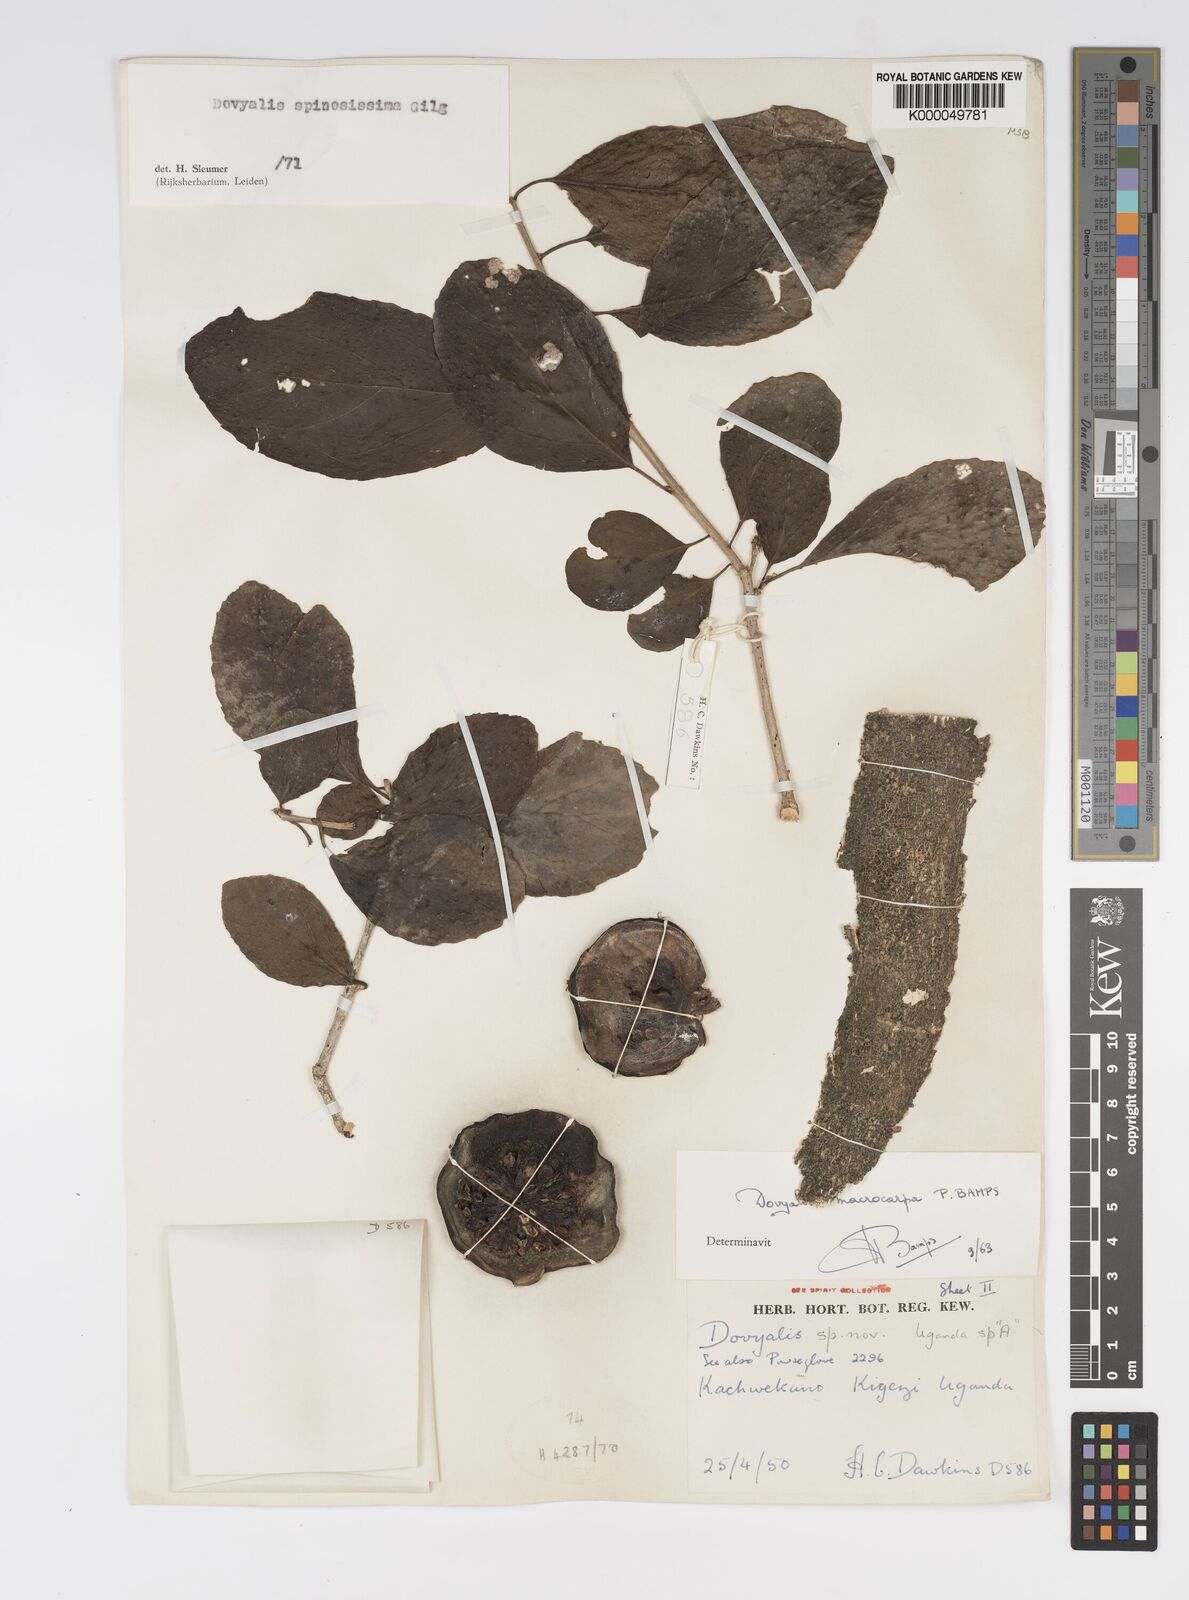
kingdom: Plantae
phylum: Tracheophyta
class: Magnoliopsida
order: Malpighiales
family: Salicaceae
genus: Dovyalis
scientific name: Dovyalis spinosissima
